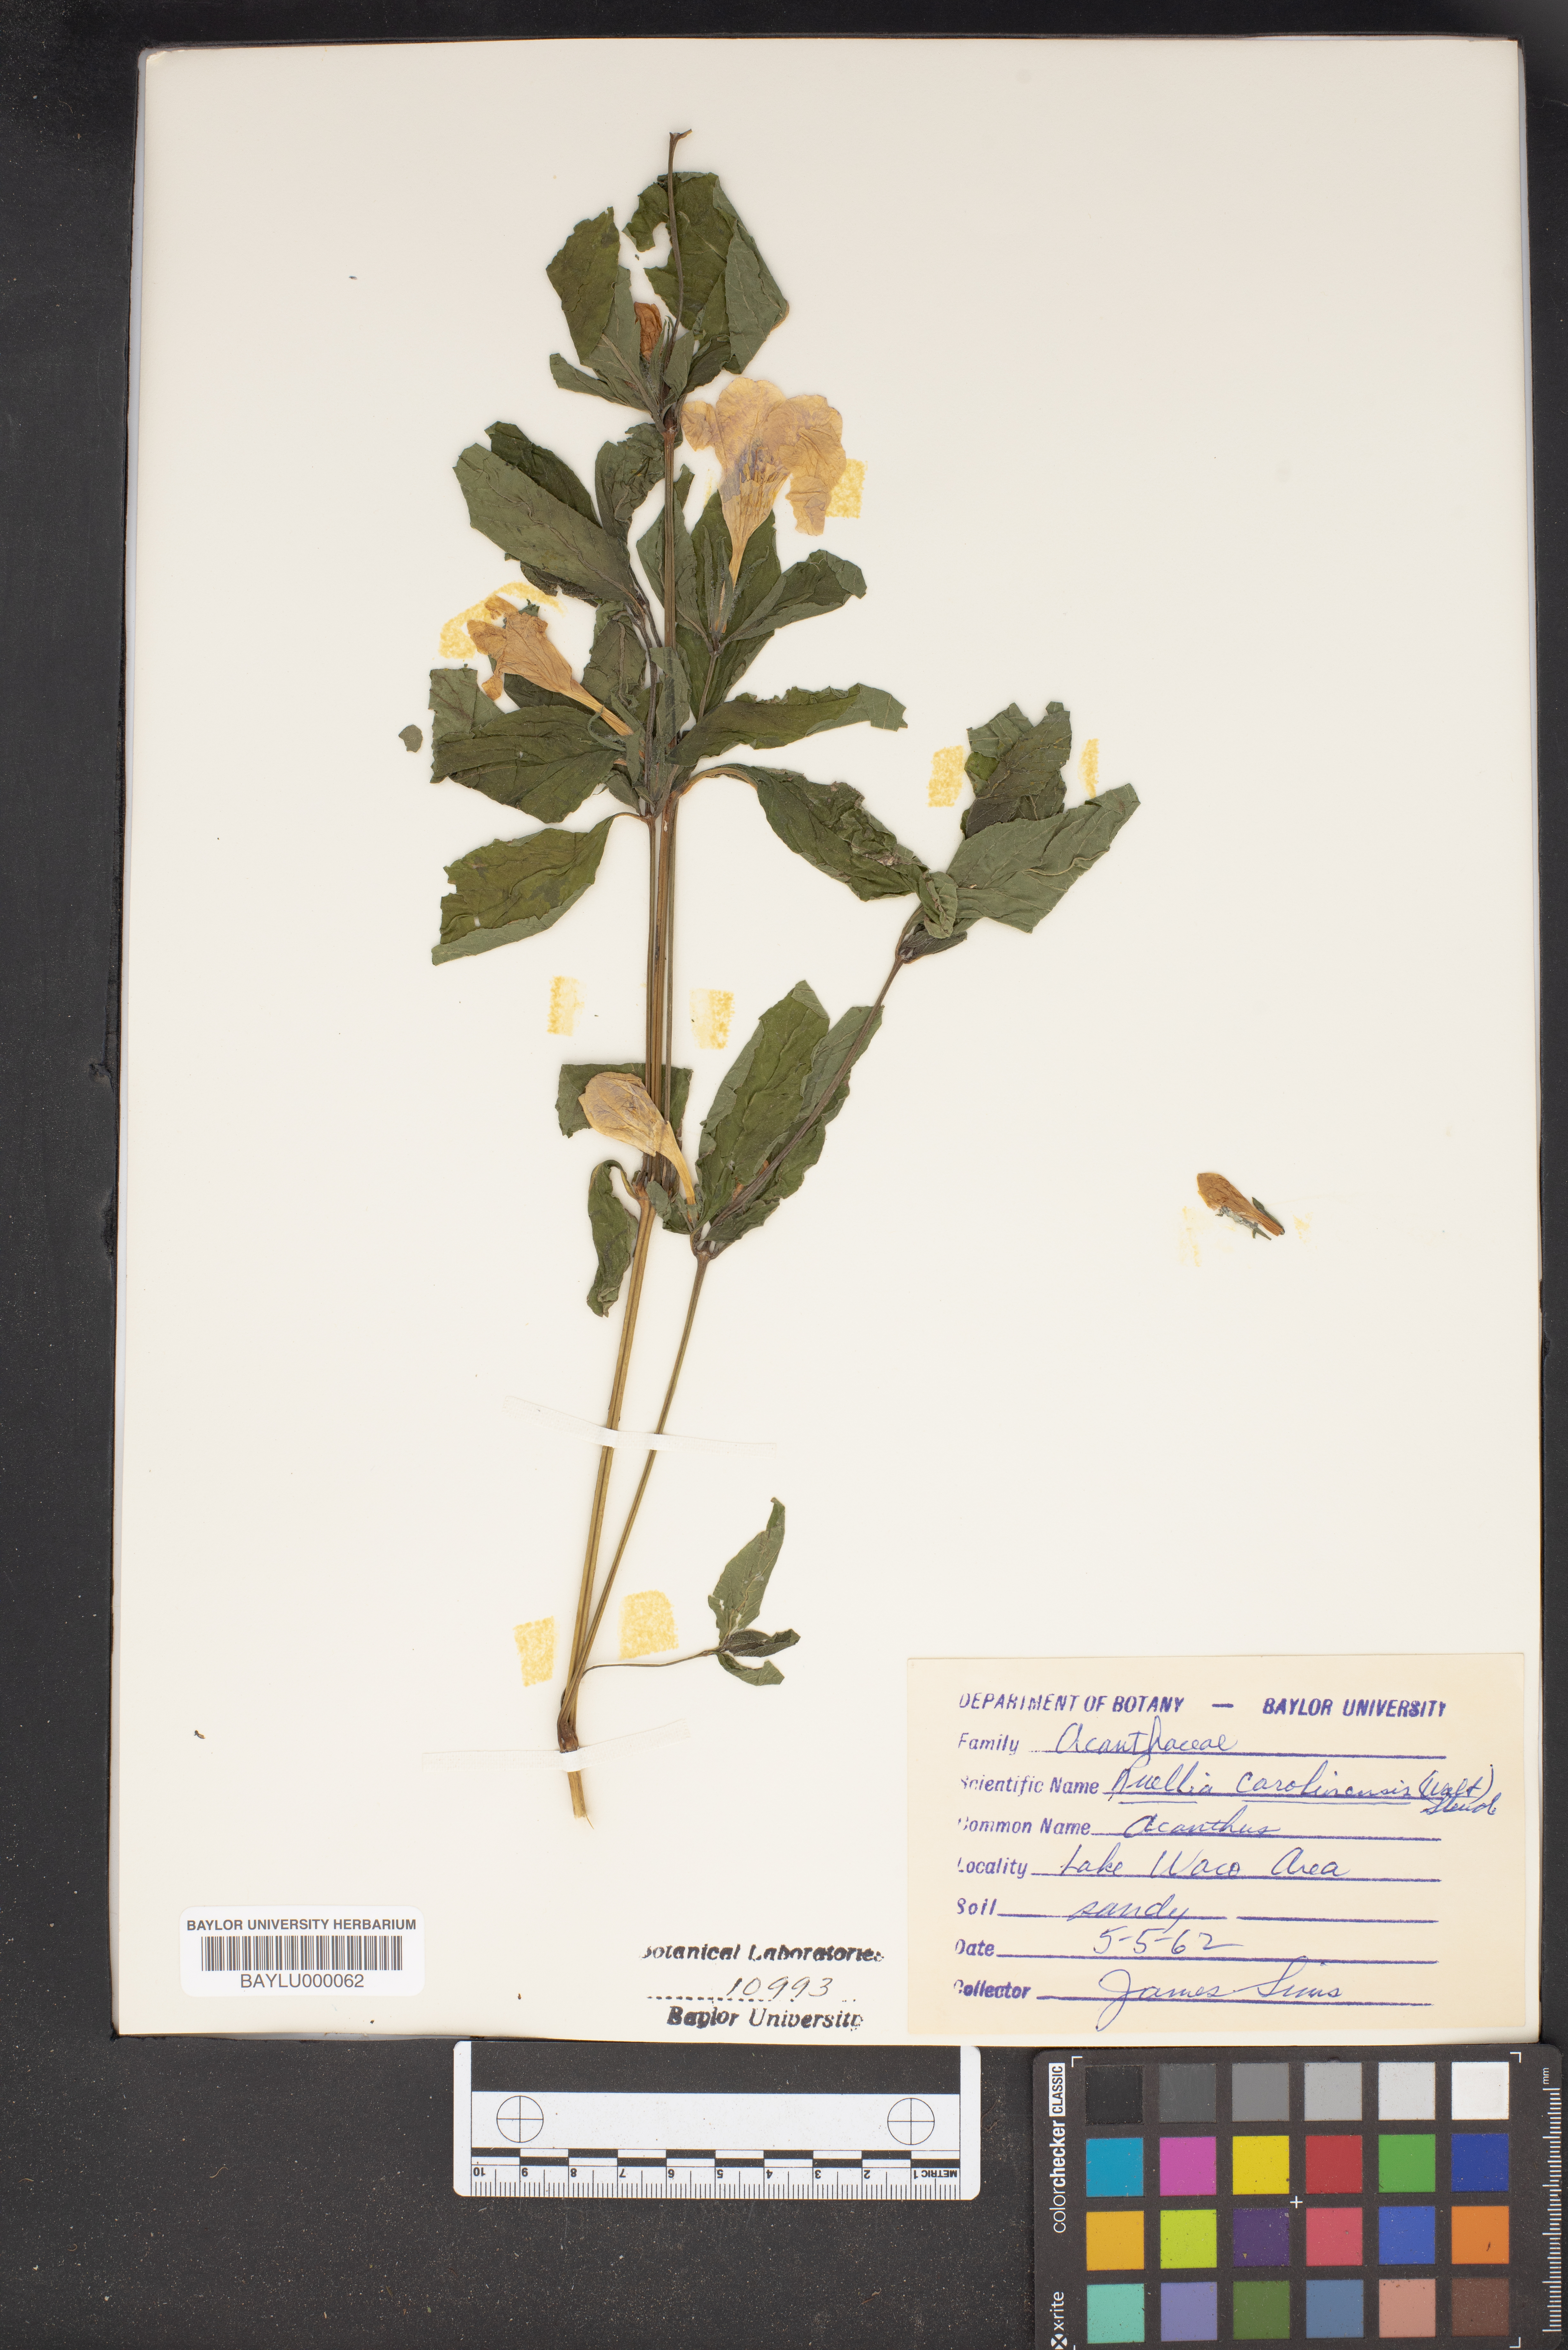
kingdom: Plantae
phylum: Tracheophyta
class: Magnoliopsida
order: Lamiales
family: Acanthaceae
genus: Ruellia
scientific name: Ruellia caroliniensis
